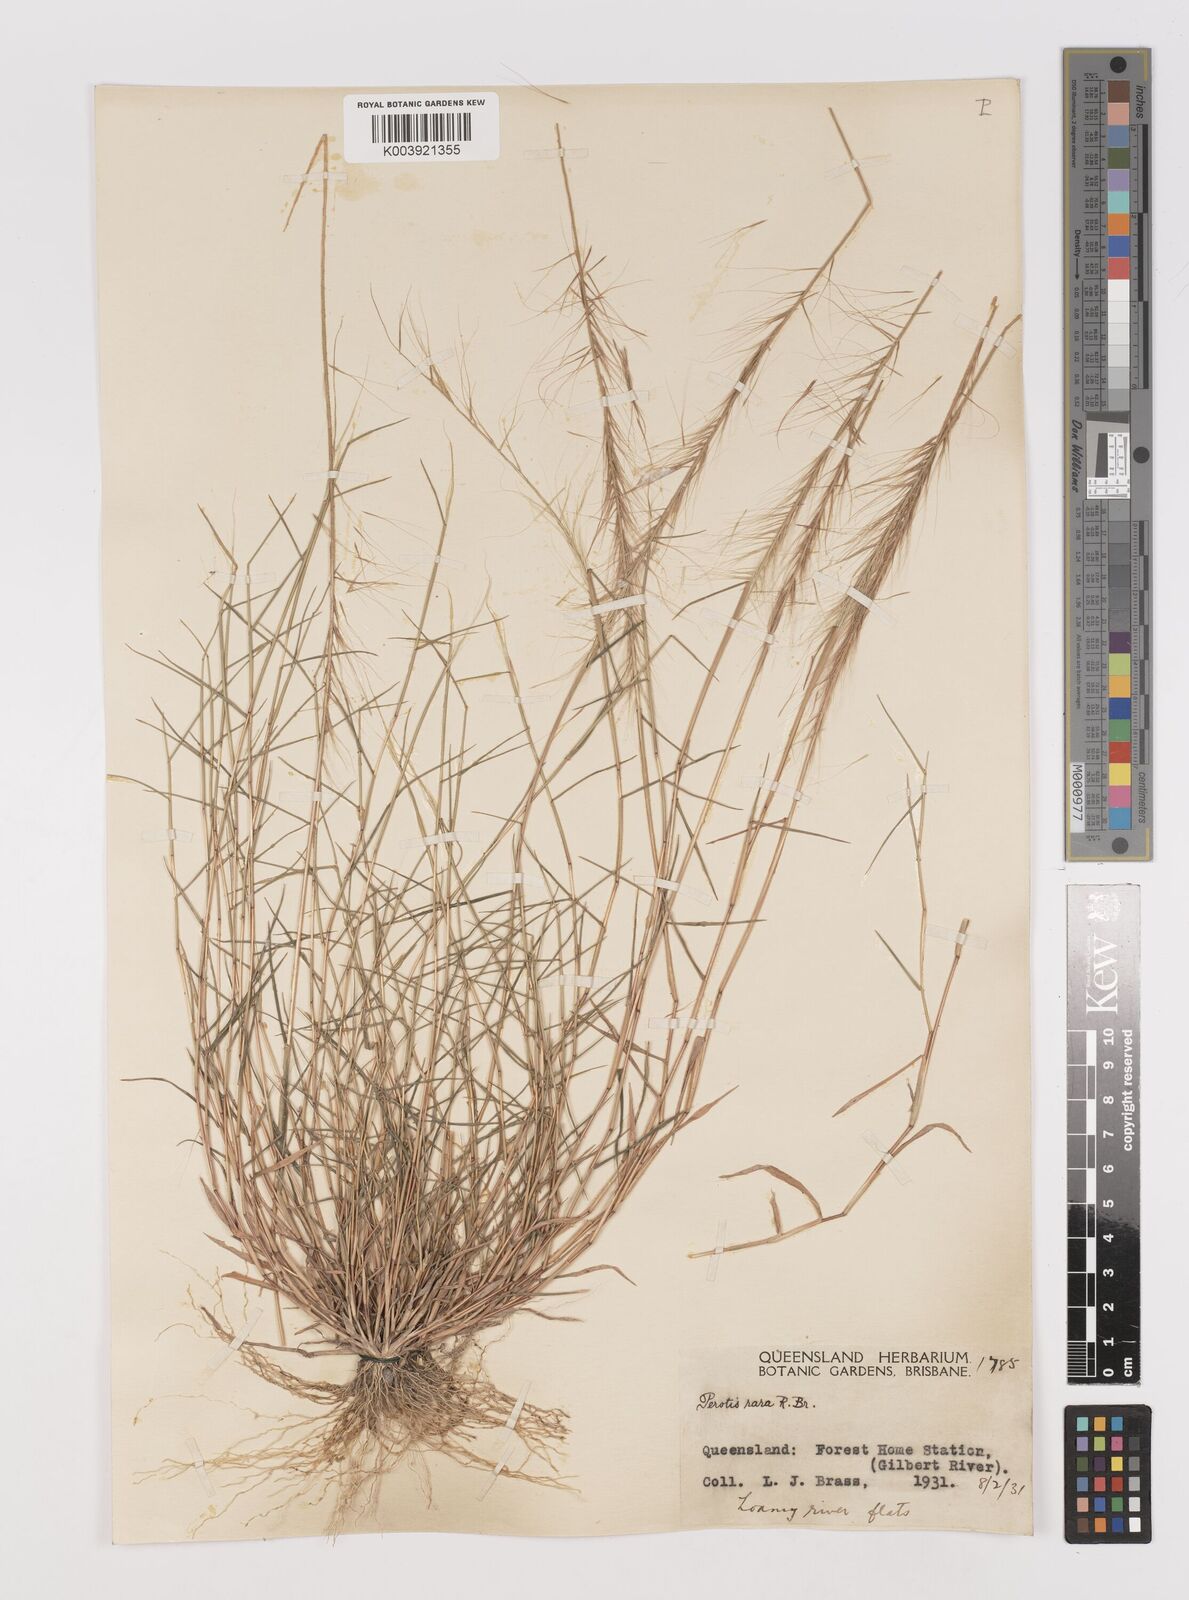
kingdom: Plantae
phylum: Tracheophyta
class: Liliopsida
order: Poales
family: Poaceae
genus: Perotis
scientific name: Perotis rara
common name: Comet grass
